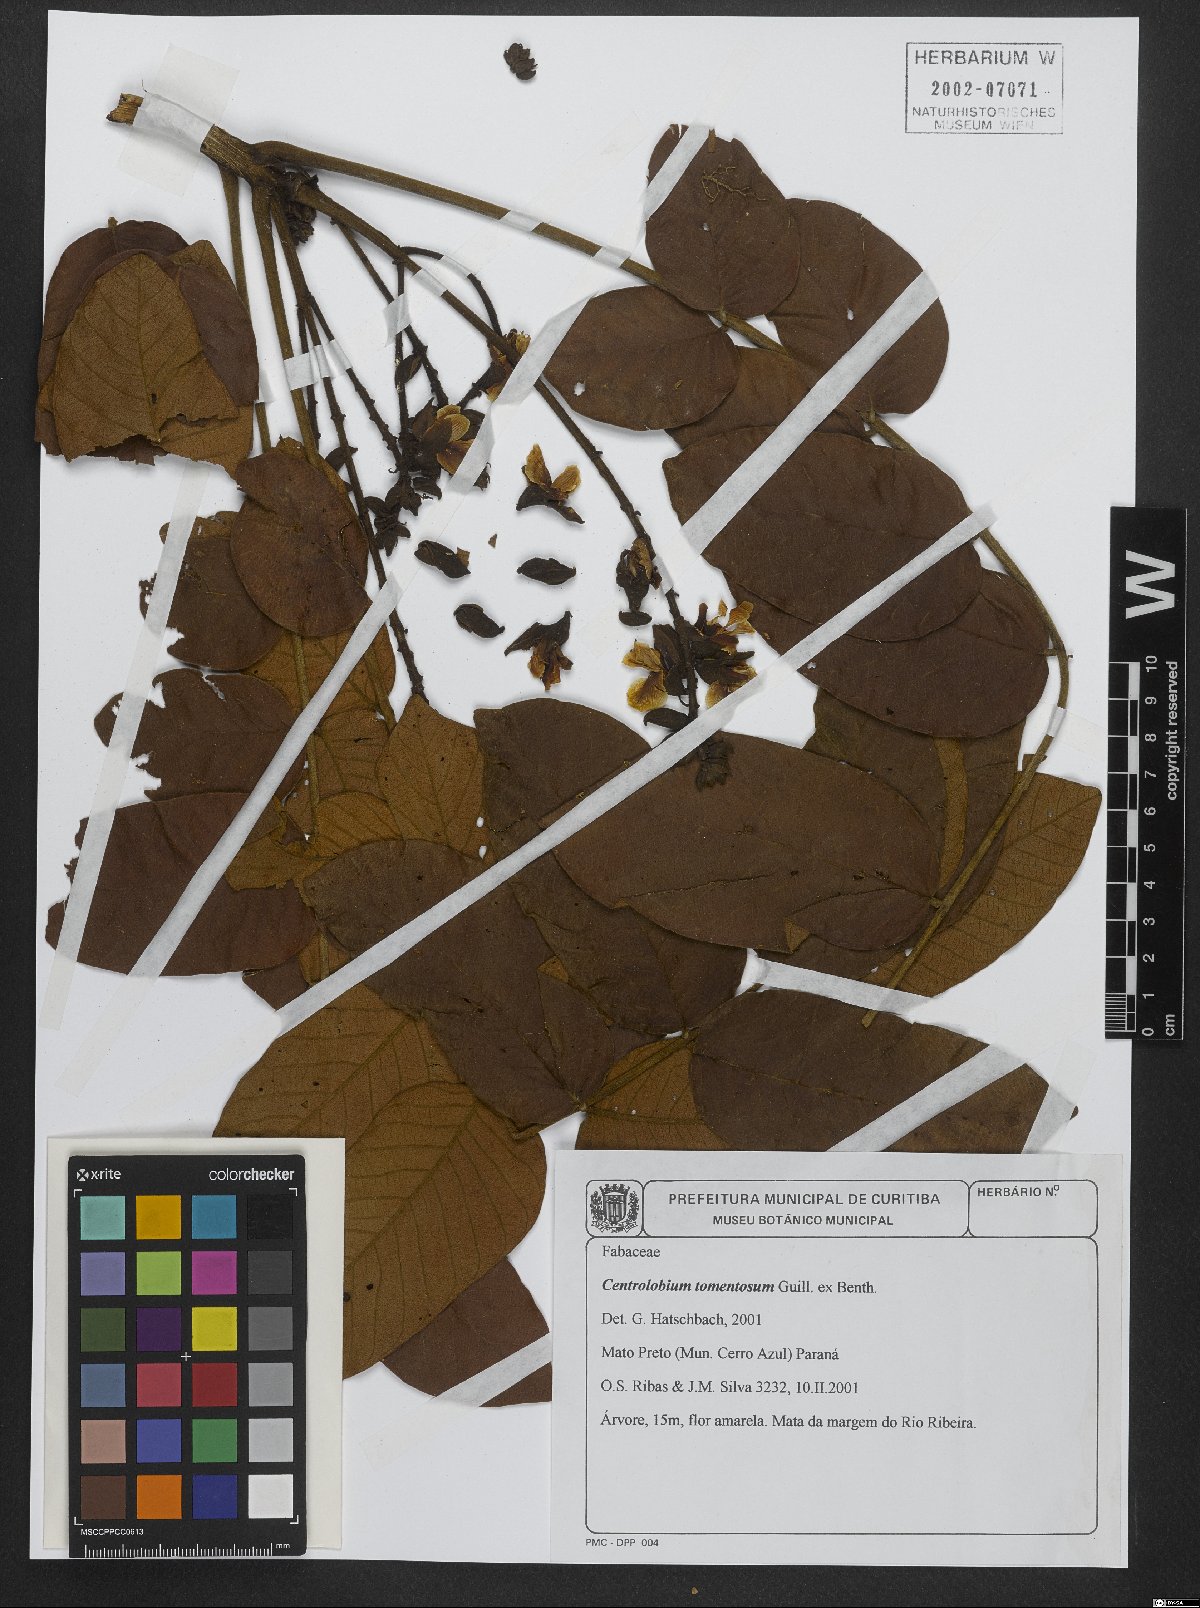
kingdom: Plantae
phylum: Tracheophyta
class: Magnoliopsida
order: Fabales
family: Fabaceae
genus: Centrolobium
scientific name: Centrolobium tomentosum
